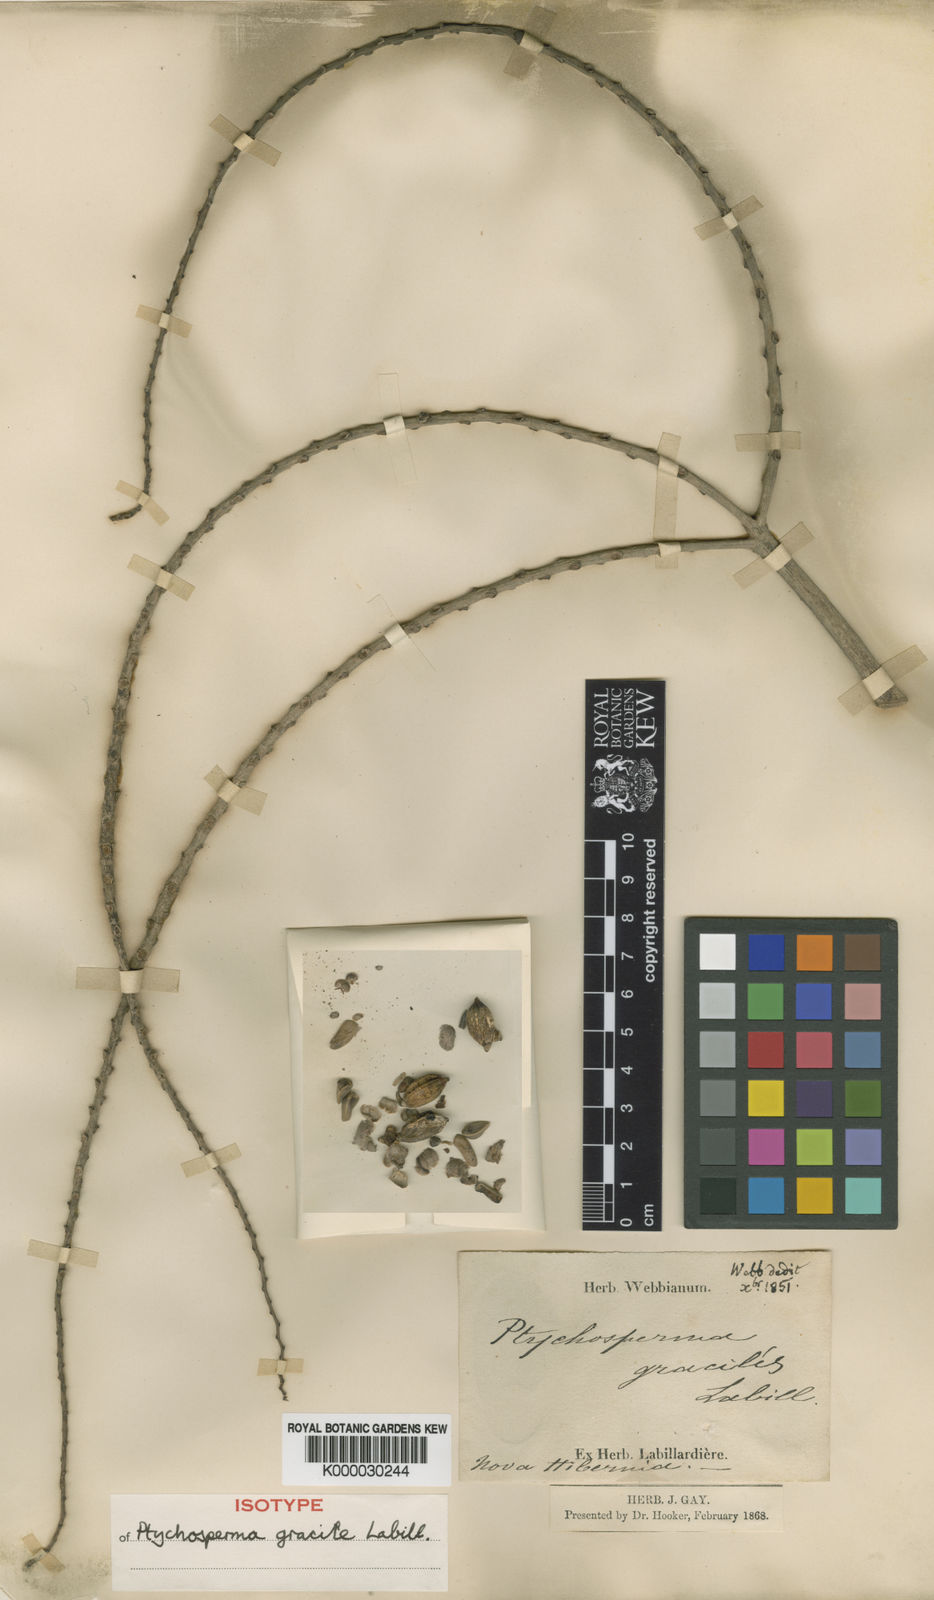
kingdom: Plantae
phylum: Tracheophyta
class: Liliopsida
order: Arecales
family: Arecaceae
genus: Ptychosperma
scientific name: Ptychosperma gracile
